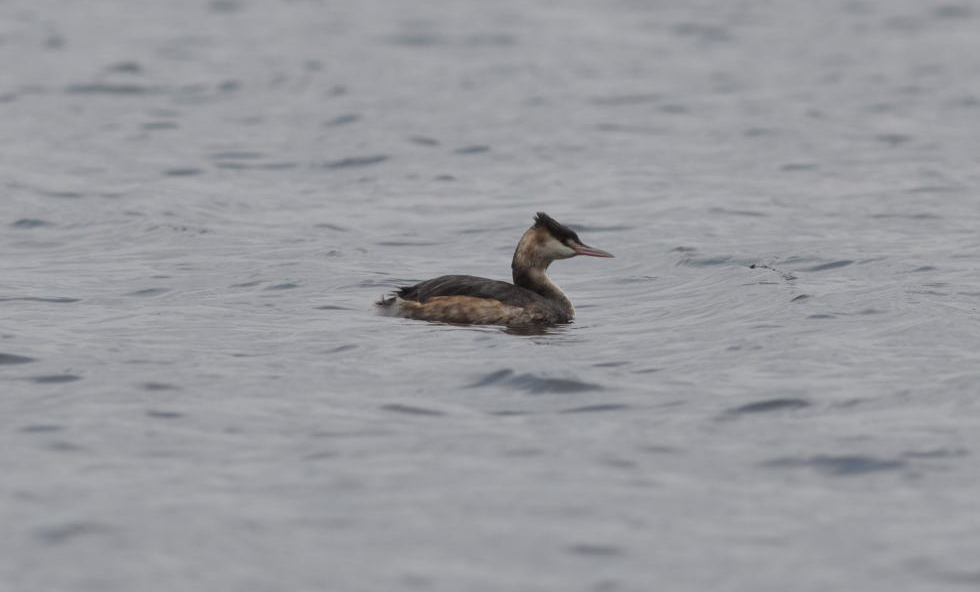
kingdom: Animalia
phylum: Chordata
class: Aves
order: Podicipediformes
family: Podicipedidae
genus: Podiceps
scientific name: Podiceps cristatus
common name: Great crested grebe
